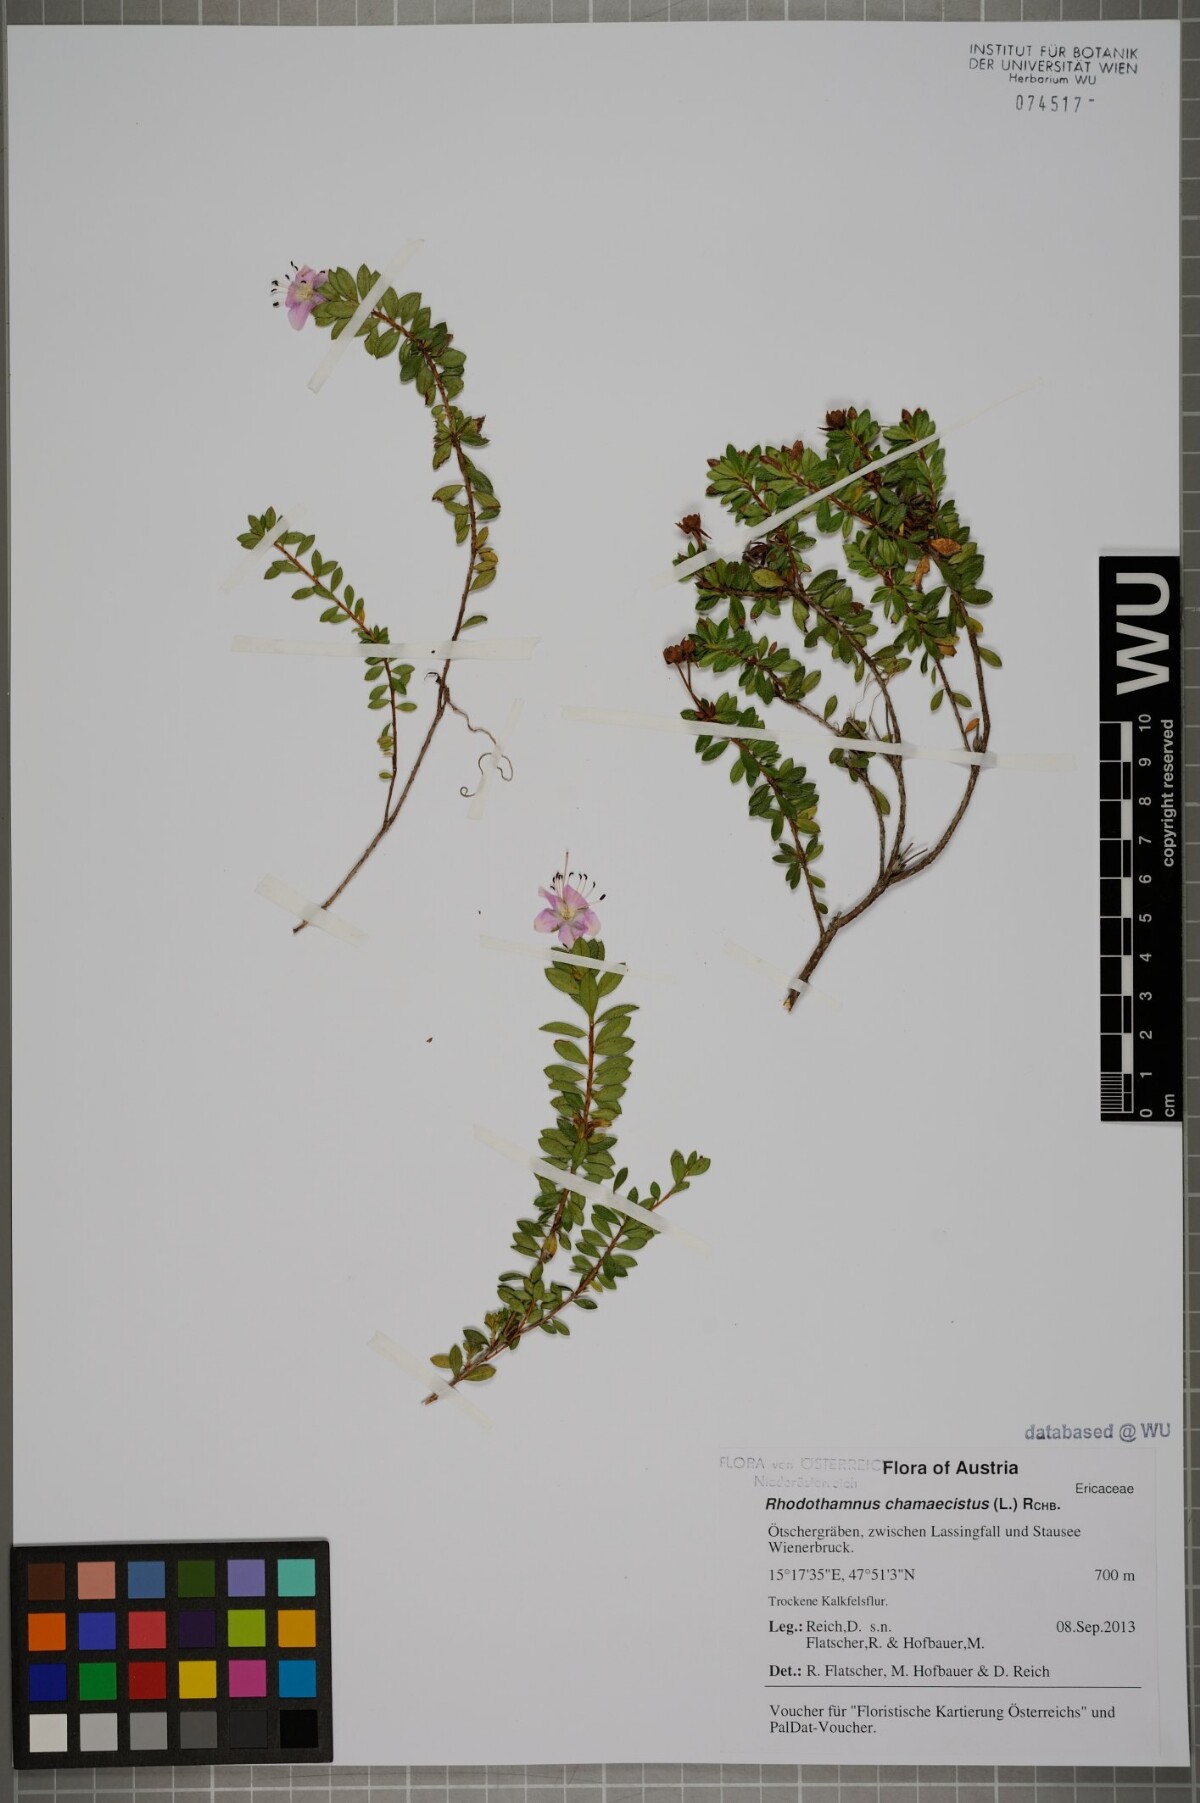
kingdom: Plantae
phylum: Tracheophyta
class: Magnoliopsida
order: Ericales
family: Ericaceae
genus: Rhodothamnus
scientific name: Rhodothamnus chamaecistus
